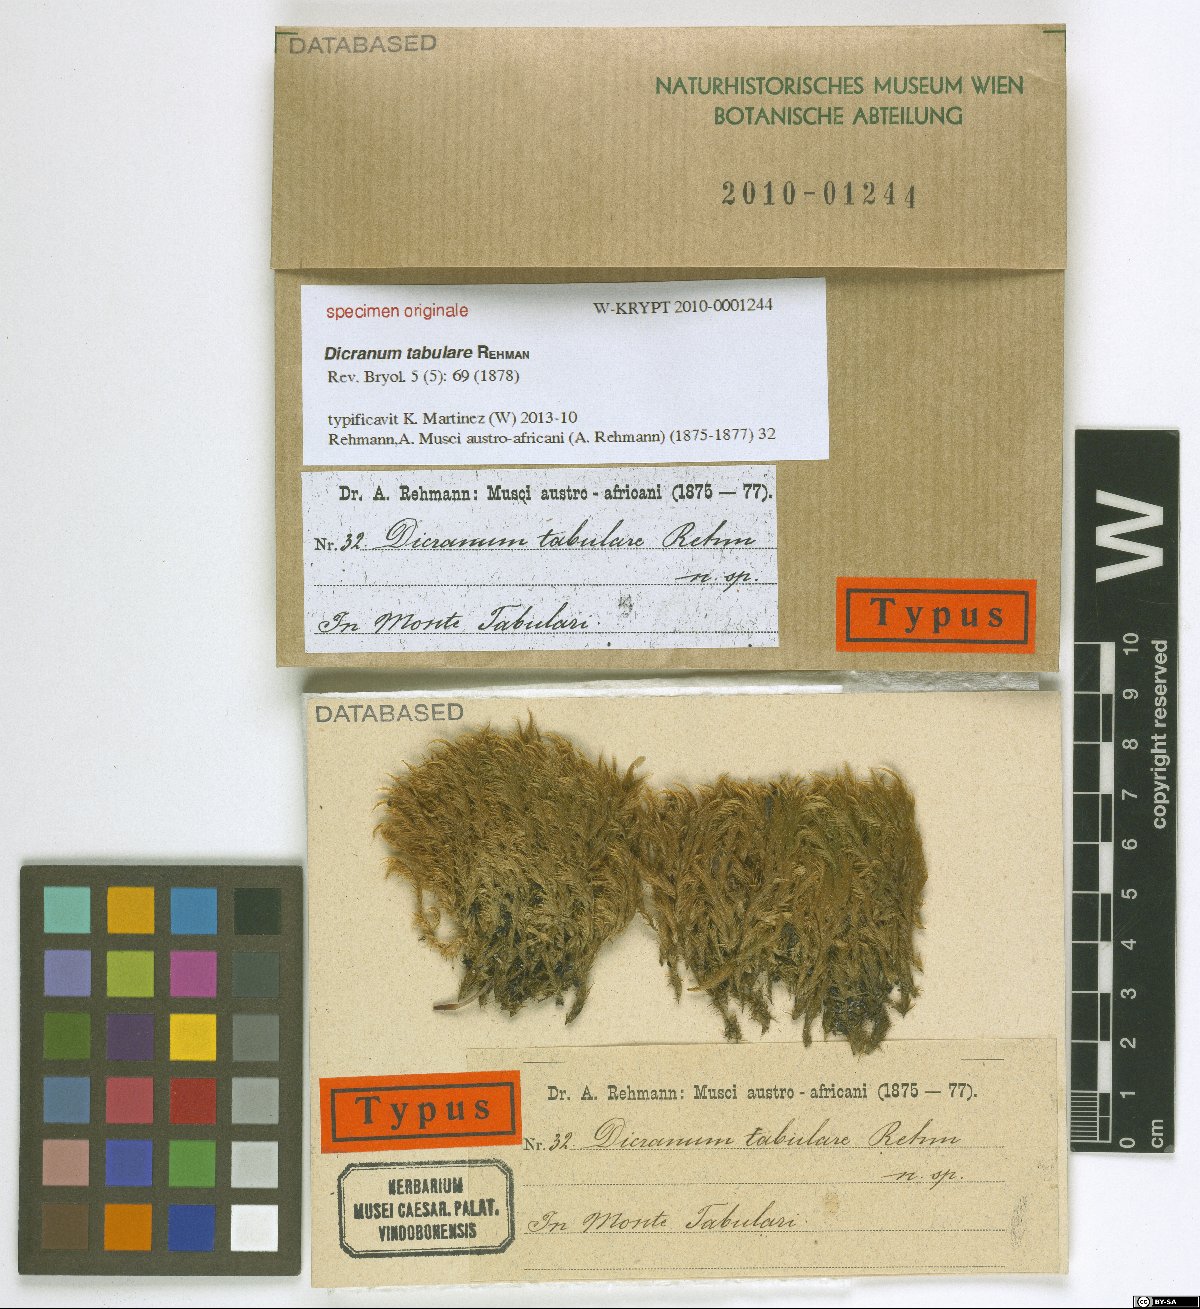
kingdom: Plantae
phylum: Bryophyta
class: Bryopsida
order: Dicranales
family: Dicranaceae
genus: Dicranum
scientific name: Dicranum
